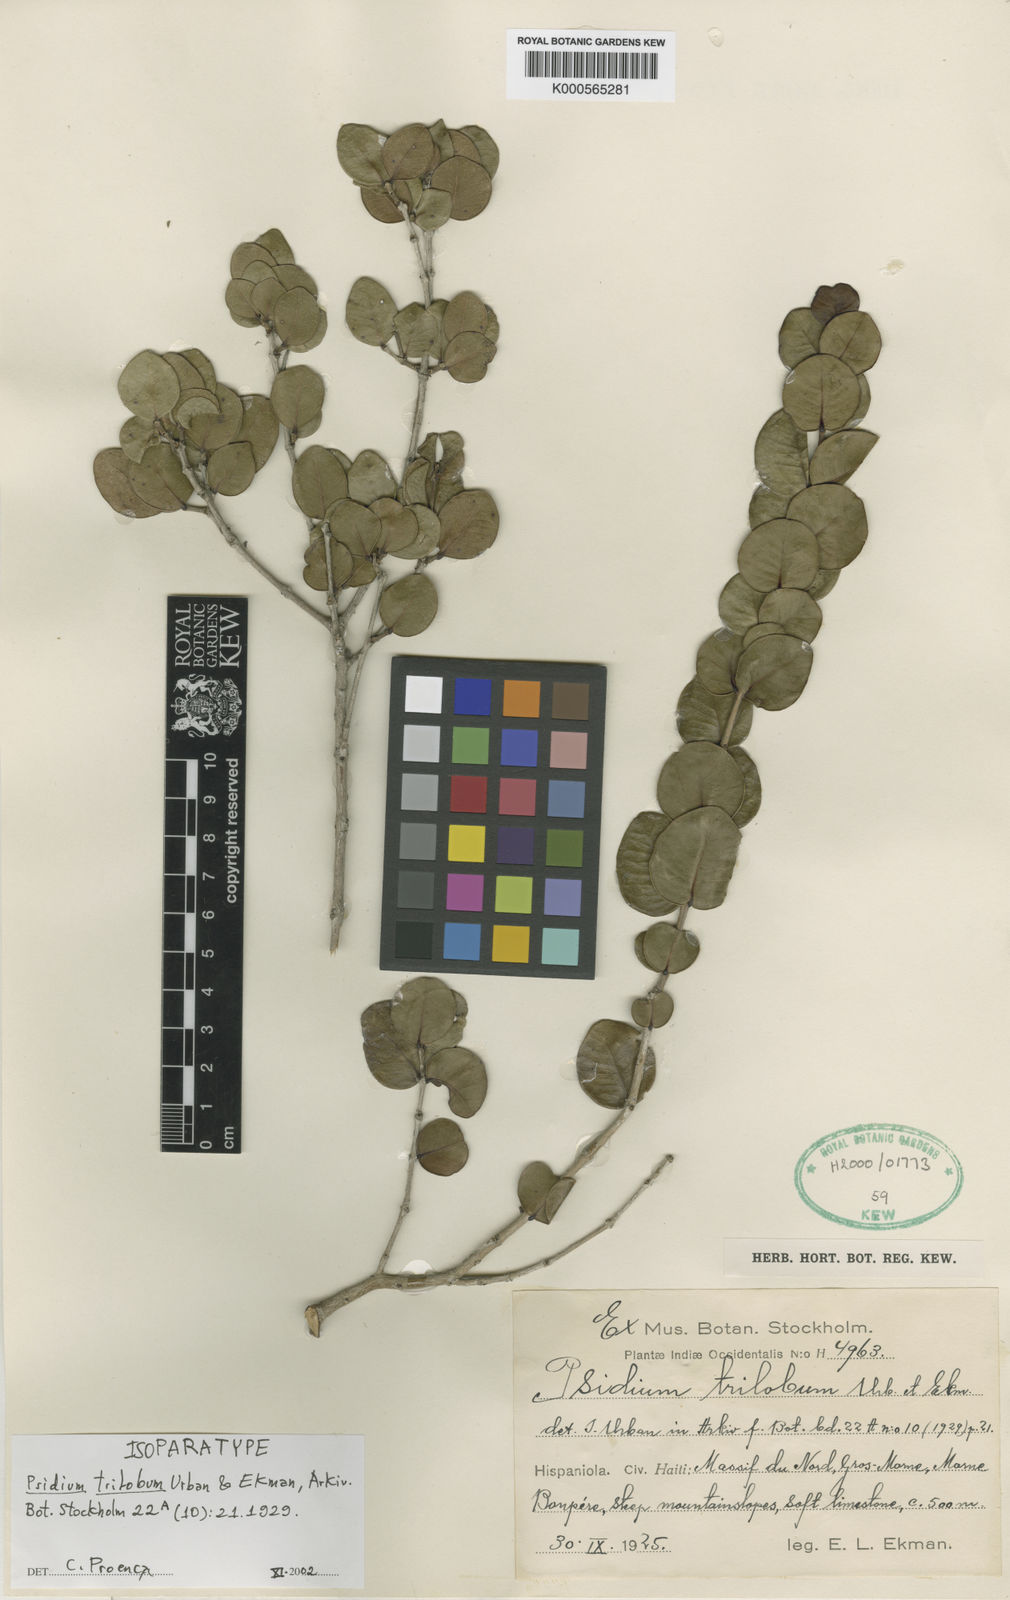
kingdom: Plantae
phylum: Tracheophyta
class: Magnoliopsida
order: Myrtales
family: Myrtaceae
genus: Psidium
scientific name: Psidium trilobum
